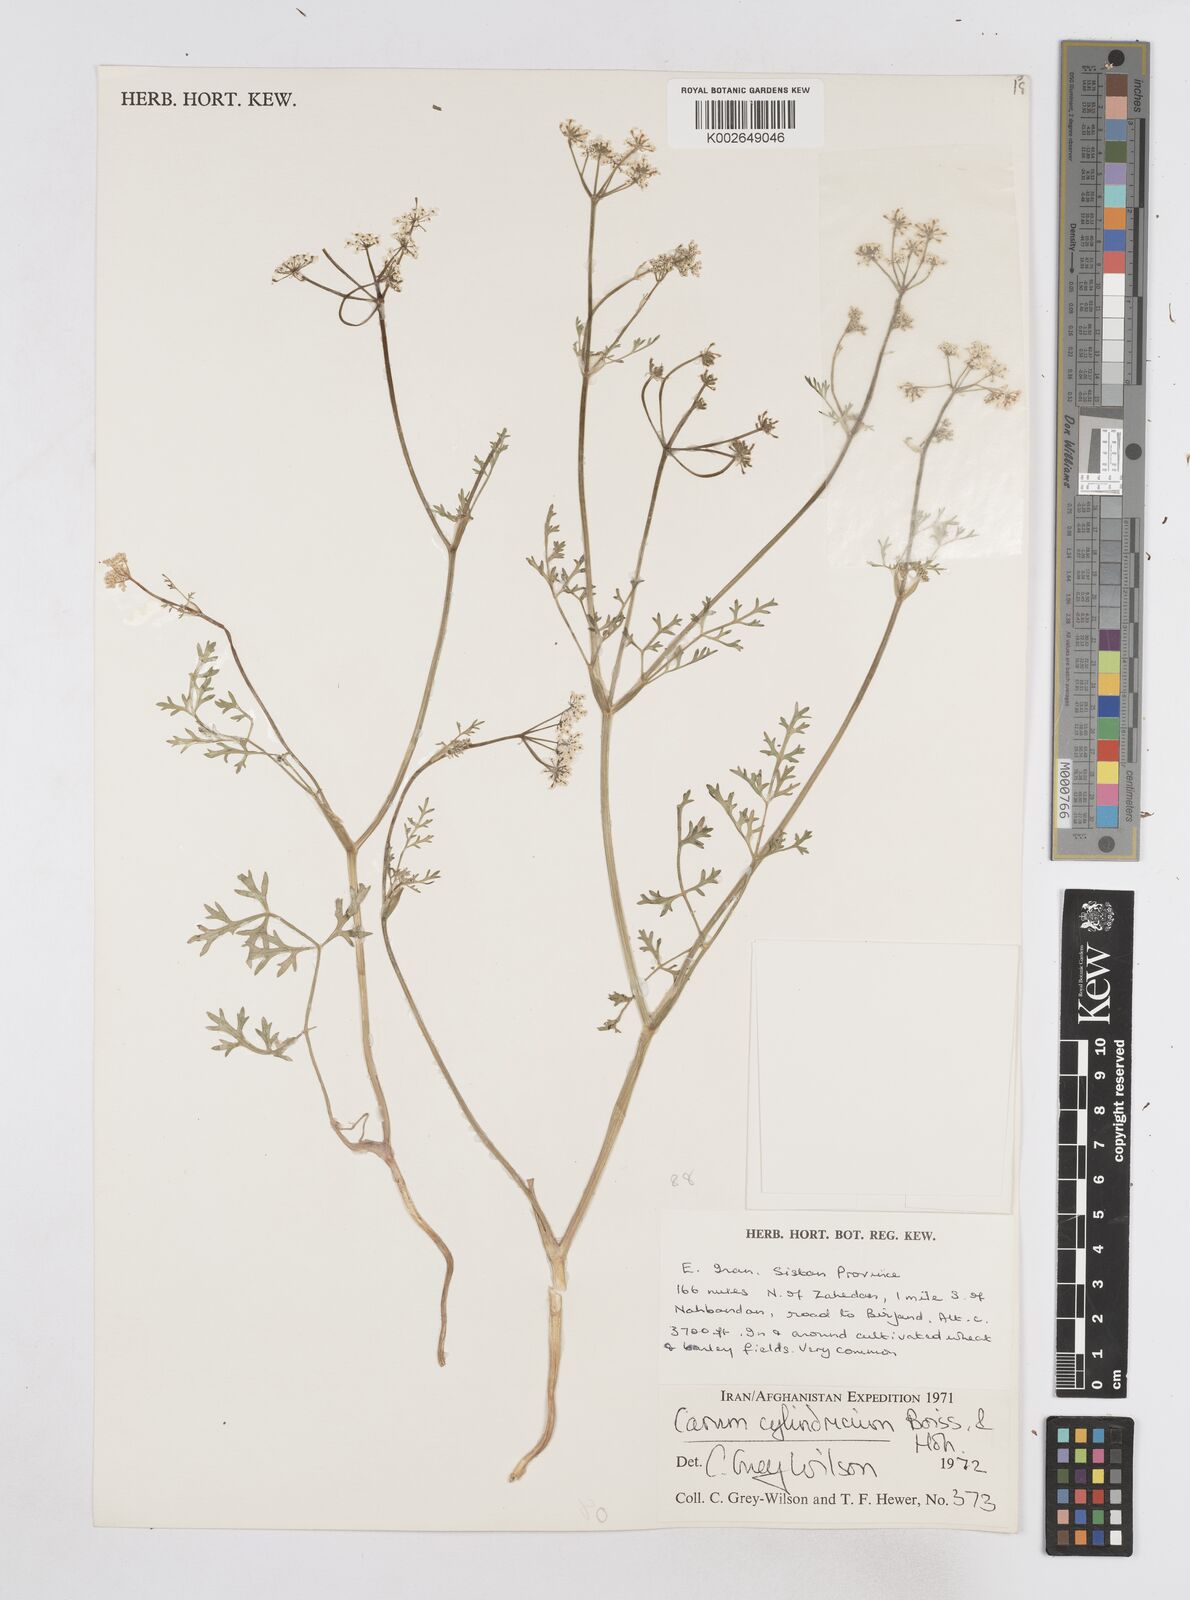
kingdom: Plantae
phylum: Tracheophyta
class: Magnoliopsida
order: Apiales
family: Apiaceae
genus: Elwendia
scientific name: Elwendia cylindrica
